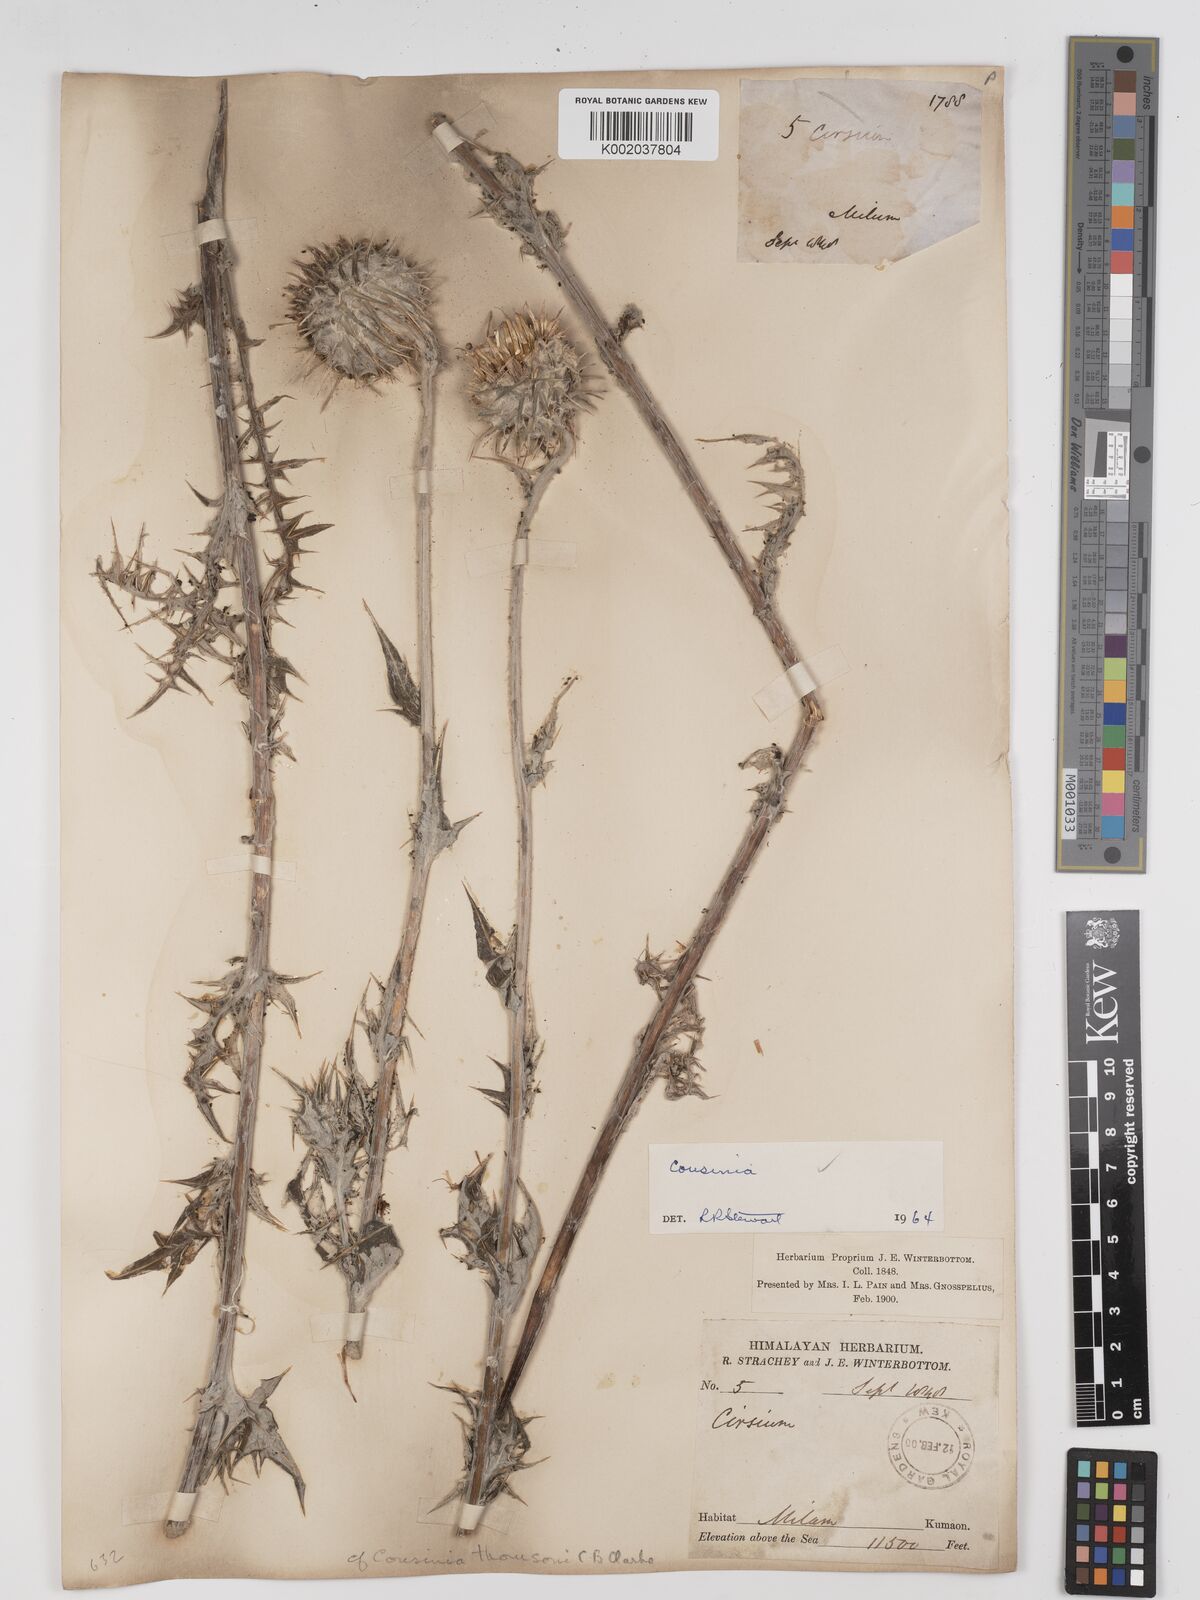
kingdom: Plantae
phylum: Tracheophyta
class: Magnoliopsida
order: Asterales
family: Asteraceae
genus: Cousinia
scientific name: Cousinia
